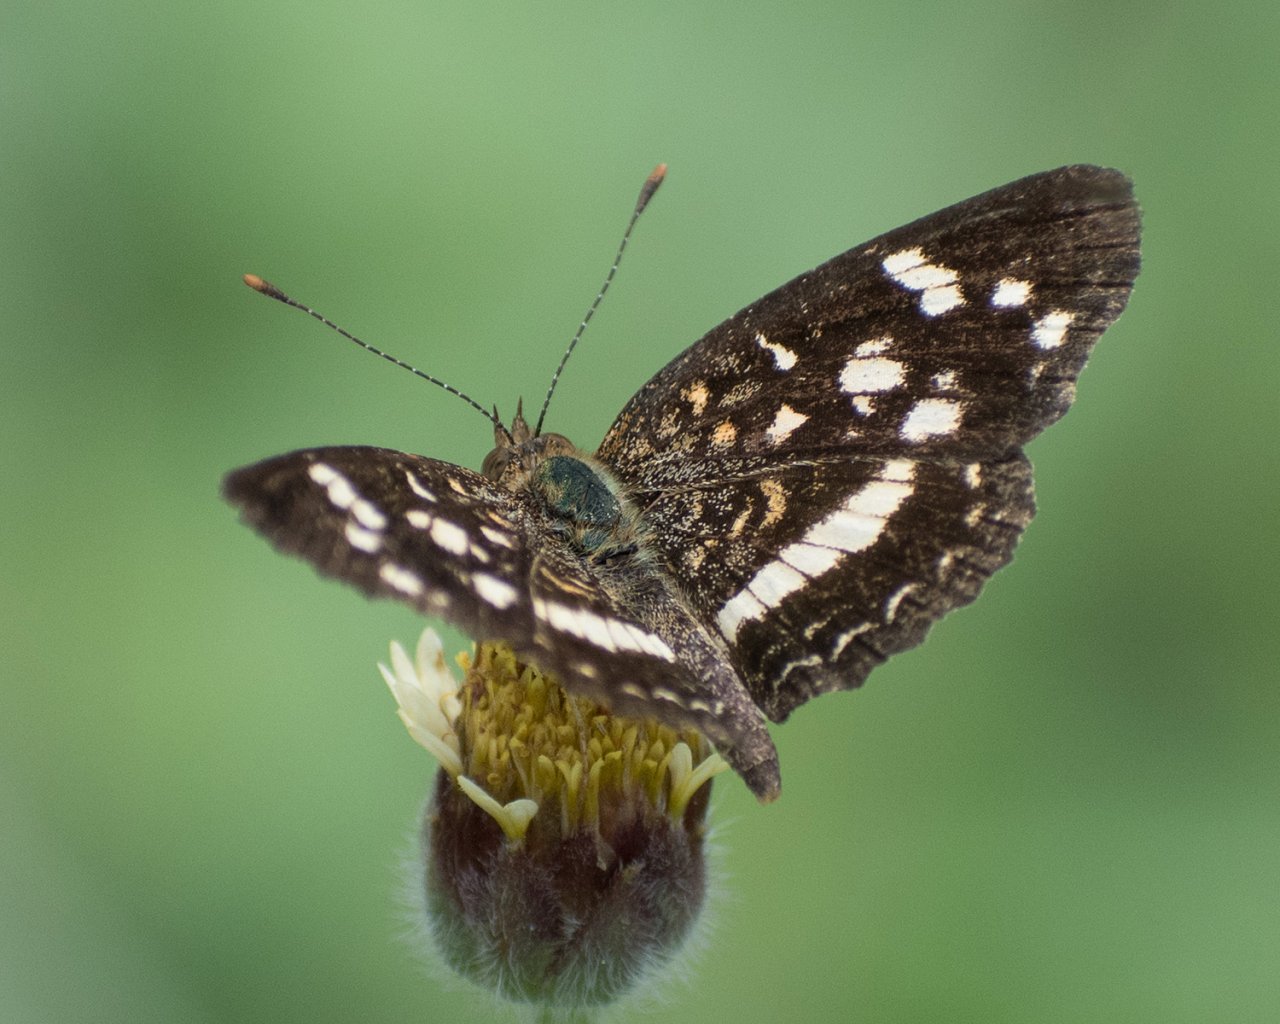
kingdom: Animalia
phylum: Arthropoda
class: Insecta
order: Lepidoptera
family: Nymphalidae
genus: Anthanassa
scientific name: Anthanassa tulcis
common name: Pale-banded Crescent
